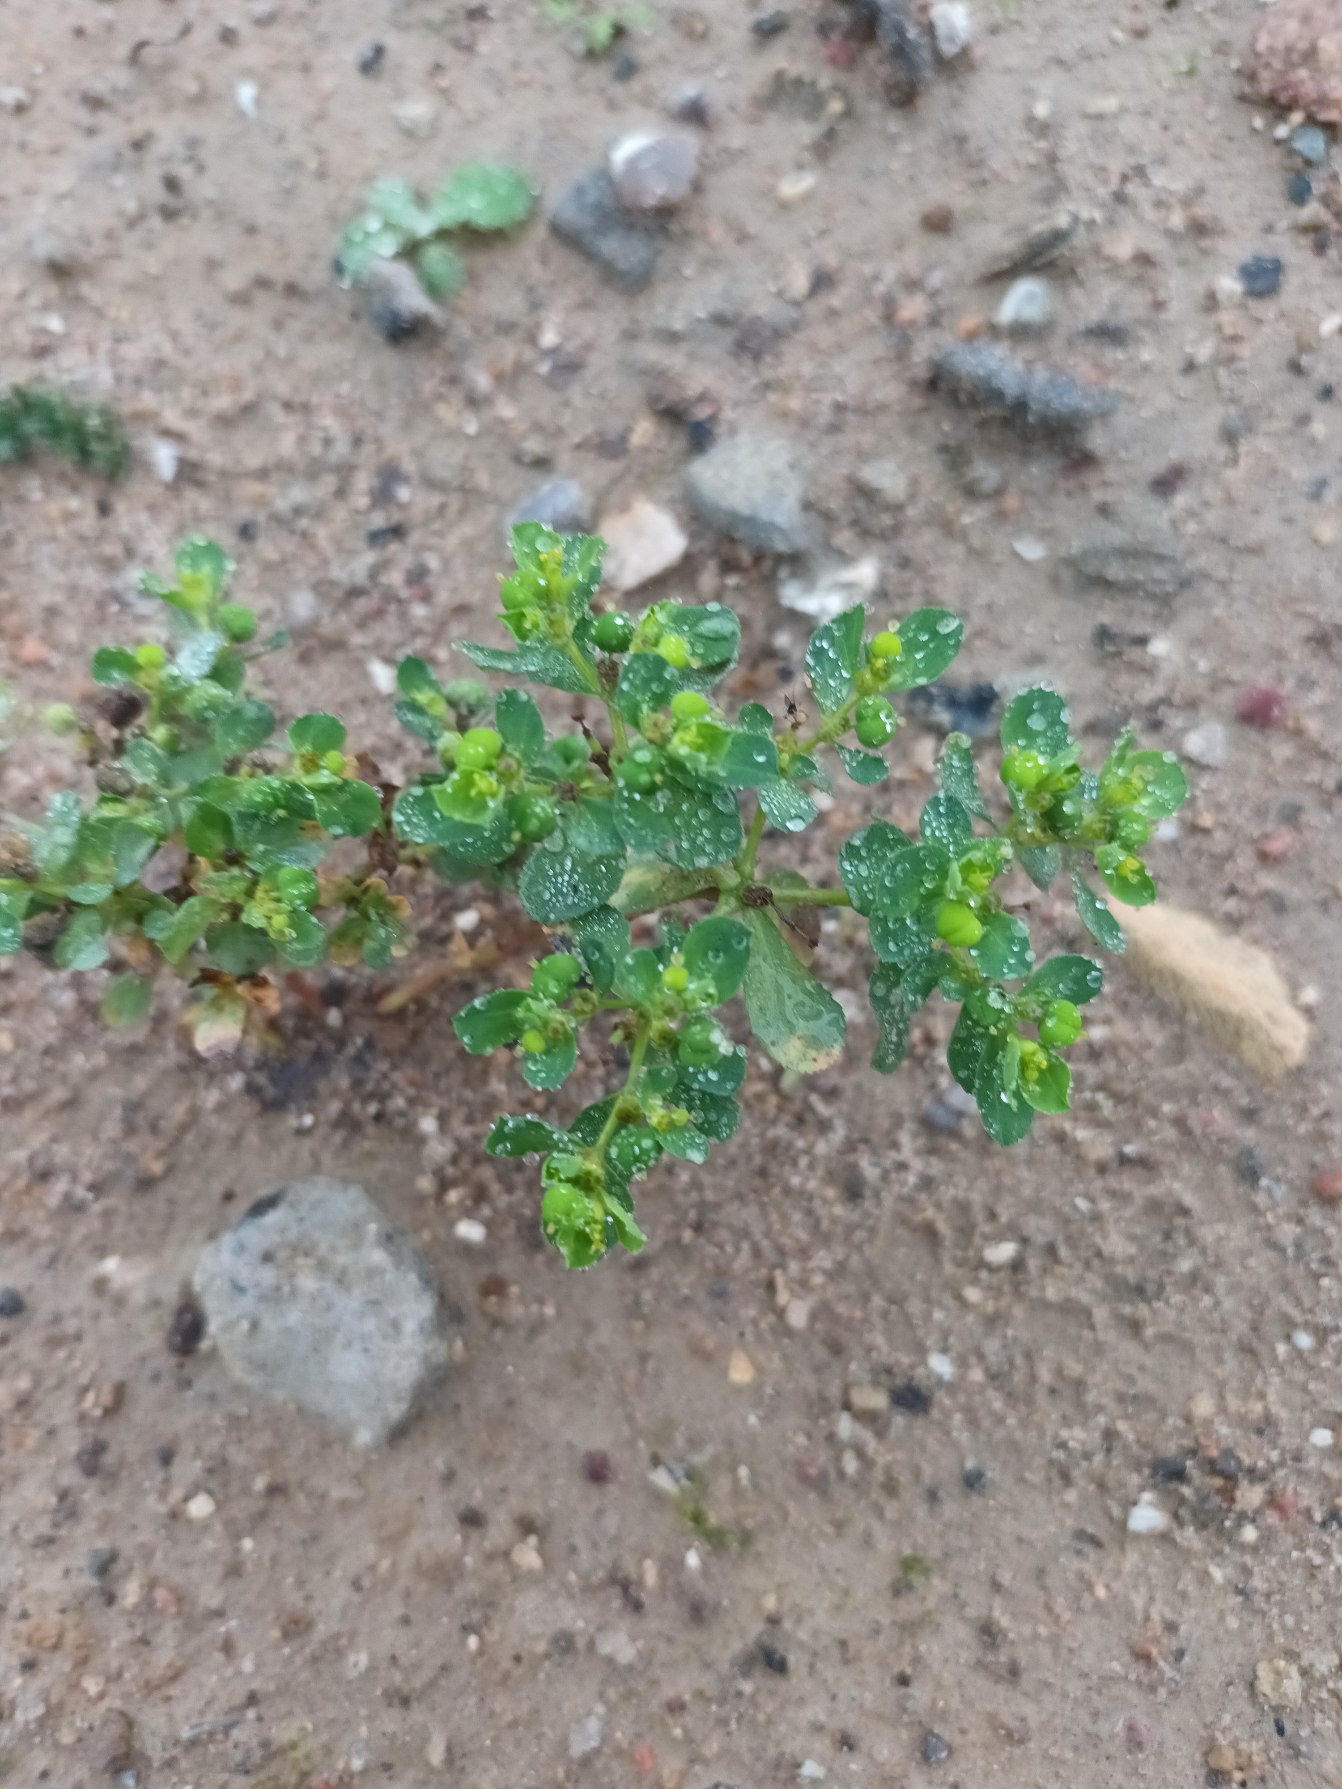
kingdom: Plantae
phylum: Tracheophyta
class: Magnoliopsida
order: Malpighiales
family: Euphorbiaceae
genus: Euphorbia
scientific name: Euphorbia helioscopia
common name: Skærm-vortemælk
